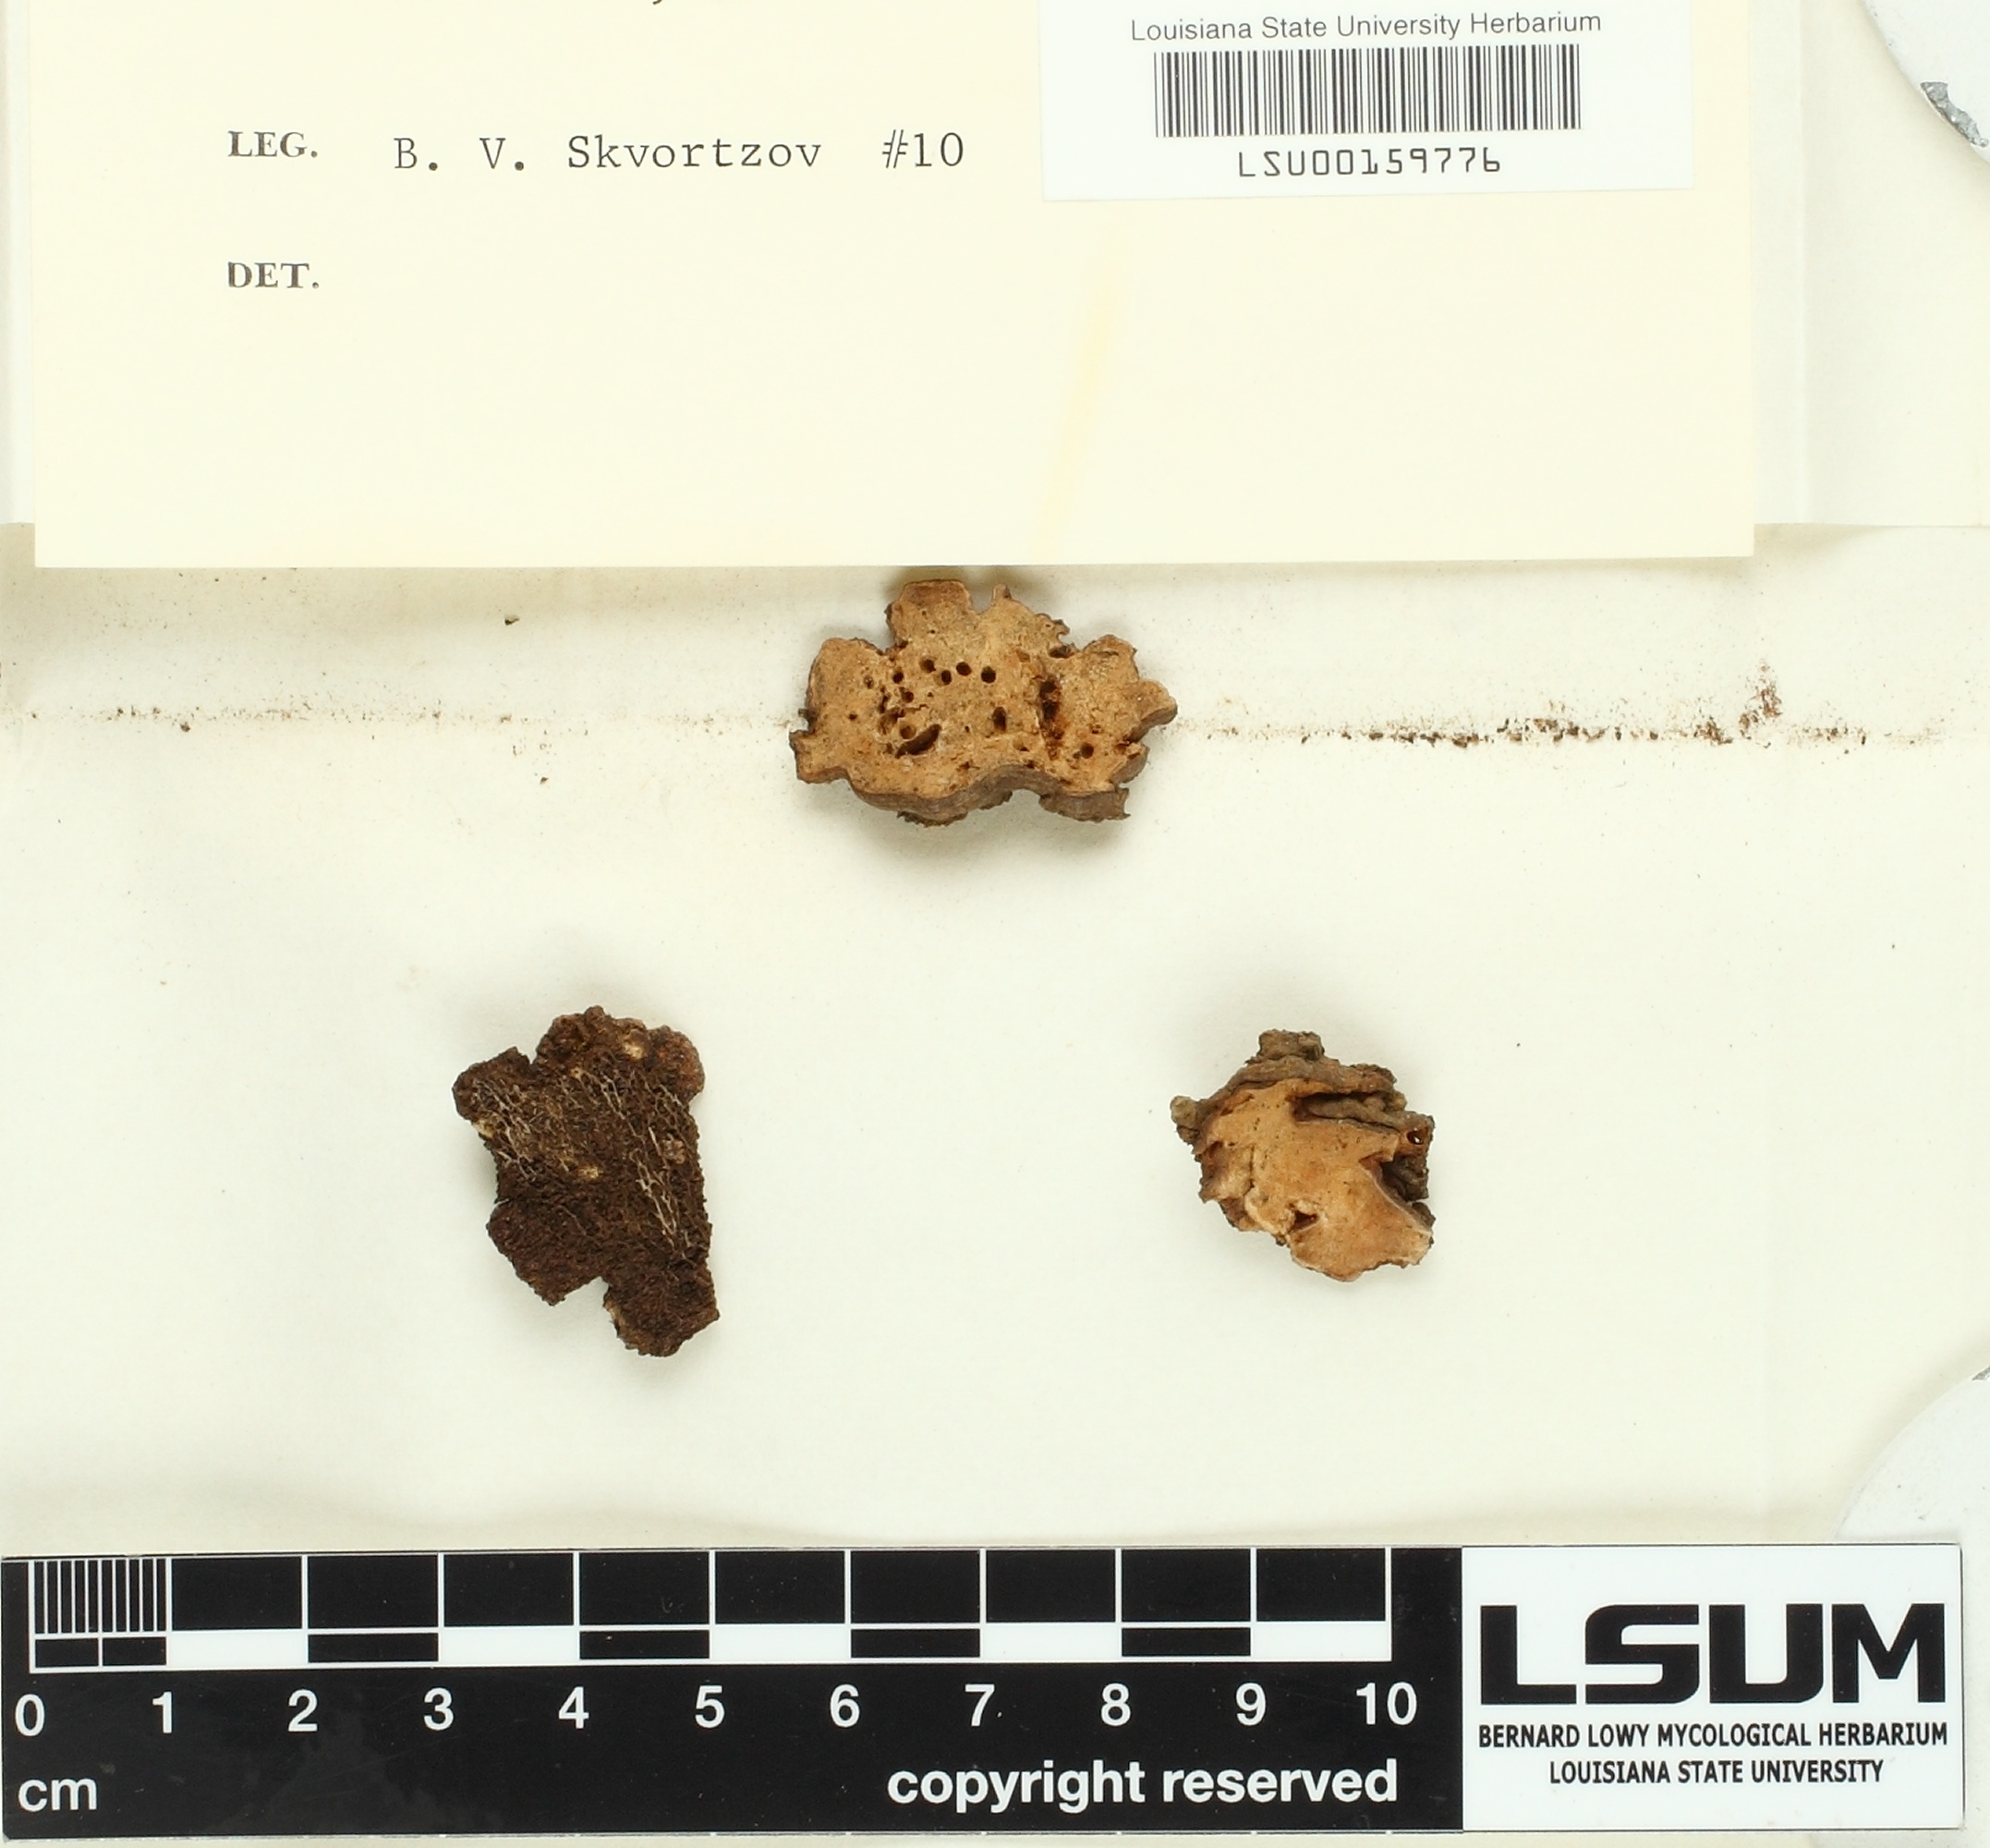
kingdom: Fungi
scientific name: Fungi
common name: Fungi
